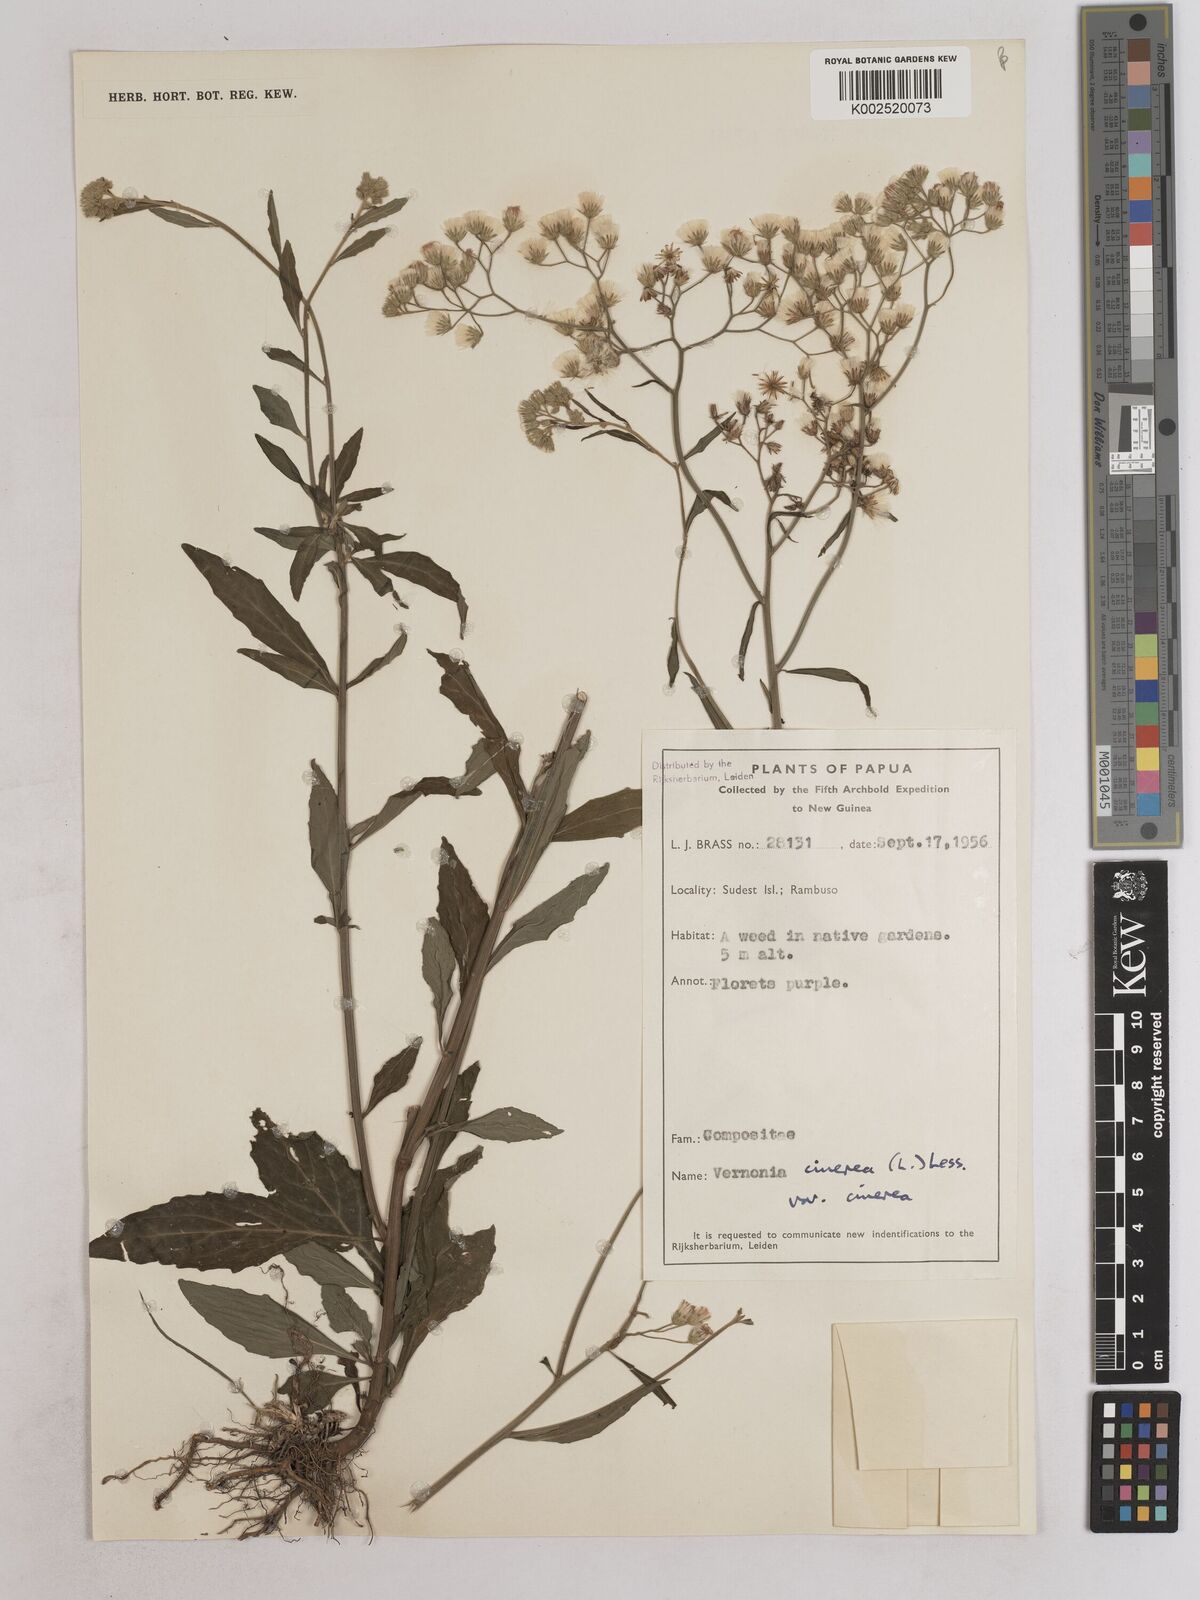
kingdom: Plantae
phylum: Tracheophyta
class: Magnoliopsida
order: Asterales
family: Asteraceae
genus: Cyanthillium
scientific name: Cyanthillium cinereum
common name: Little ironweed
